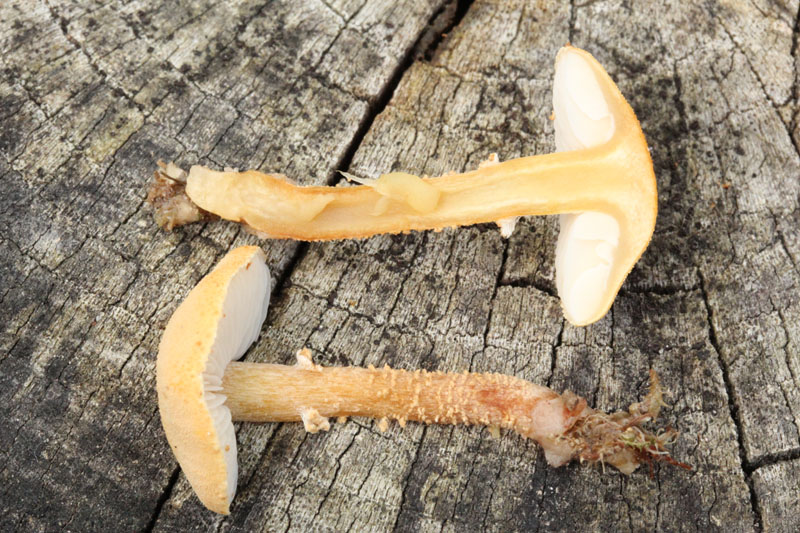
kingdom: Fungi
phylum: Basidiomycota
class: Agaricomycetes
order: Agaricales
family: Tricholomataceae
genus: Cystoderma
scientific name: Cystoderma amianthinum
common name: okkergul grynhat
